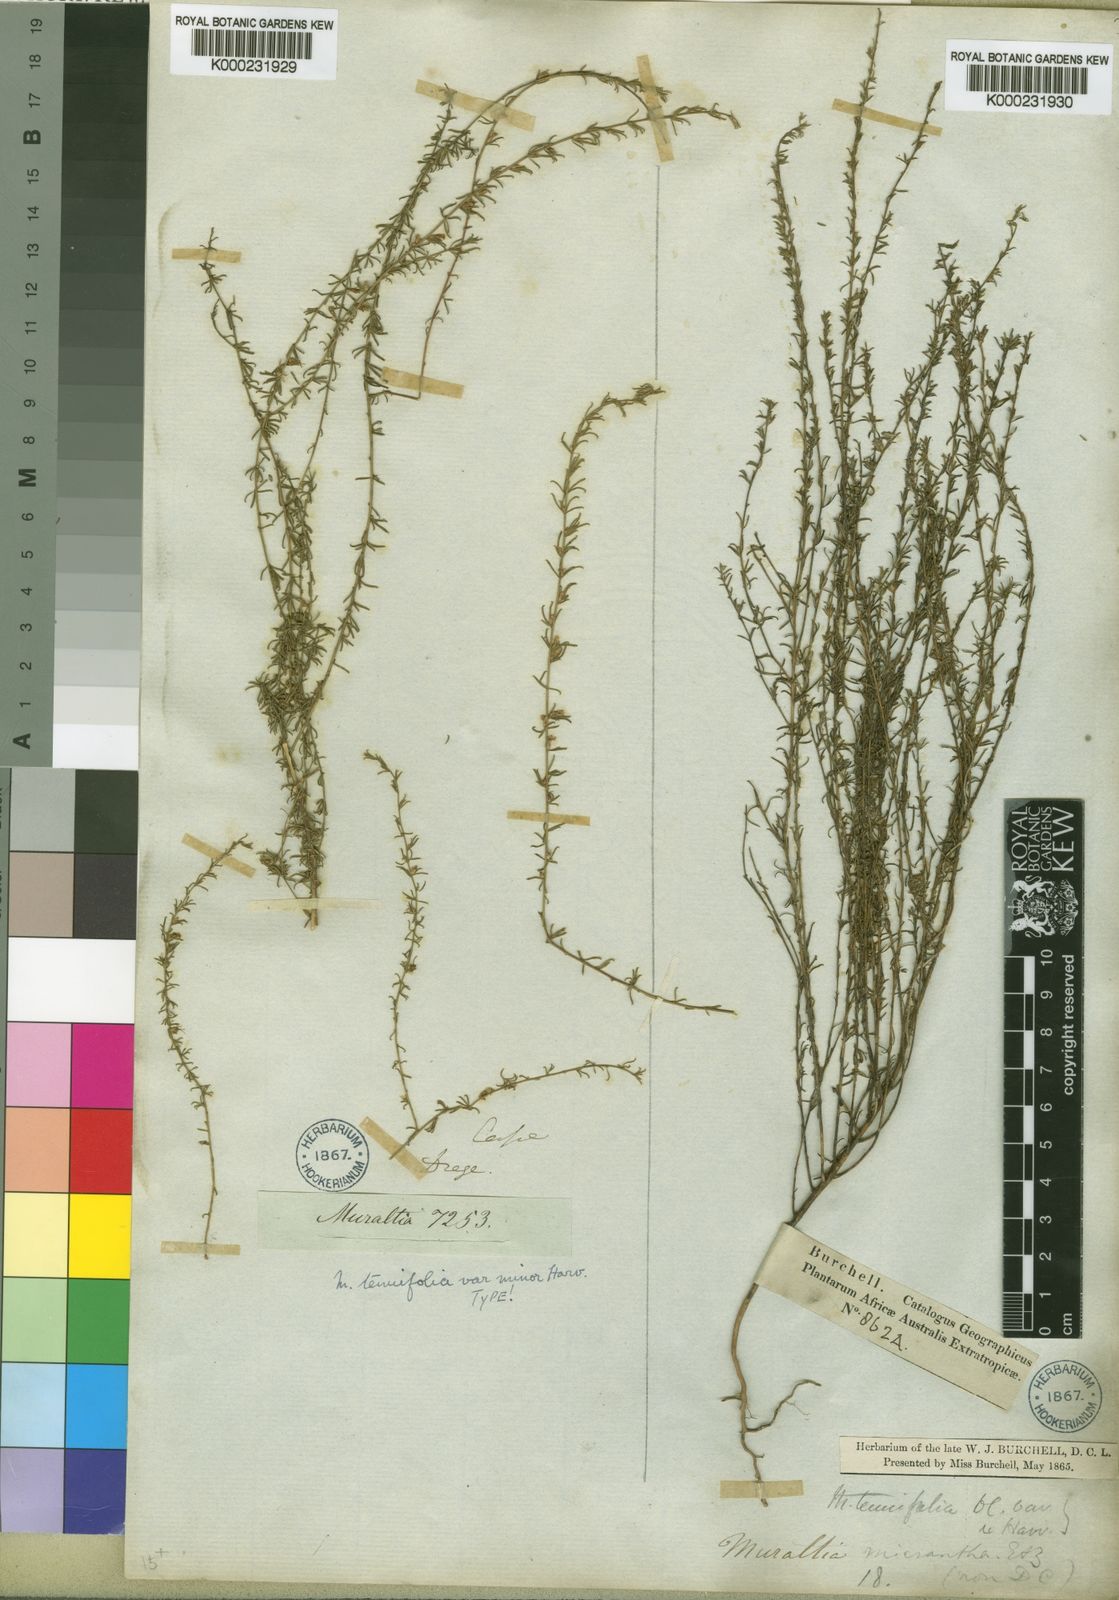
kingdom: Plantae
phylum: Tracheophyta
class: Magnoliopsida
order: Fabales
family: Polygalaceae
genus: Muraltia
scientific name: Muraltia tenuifolia
